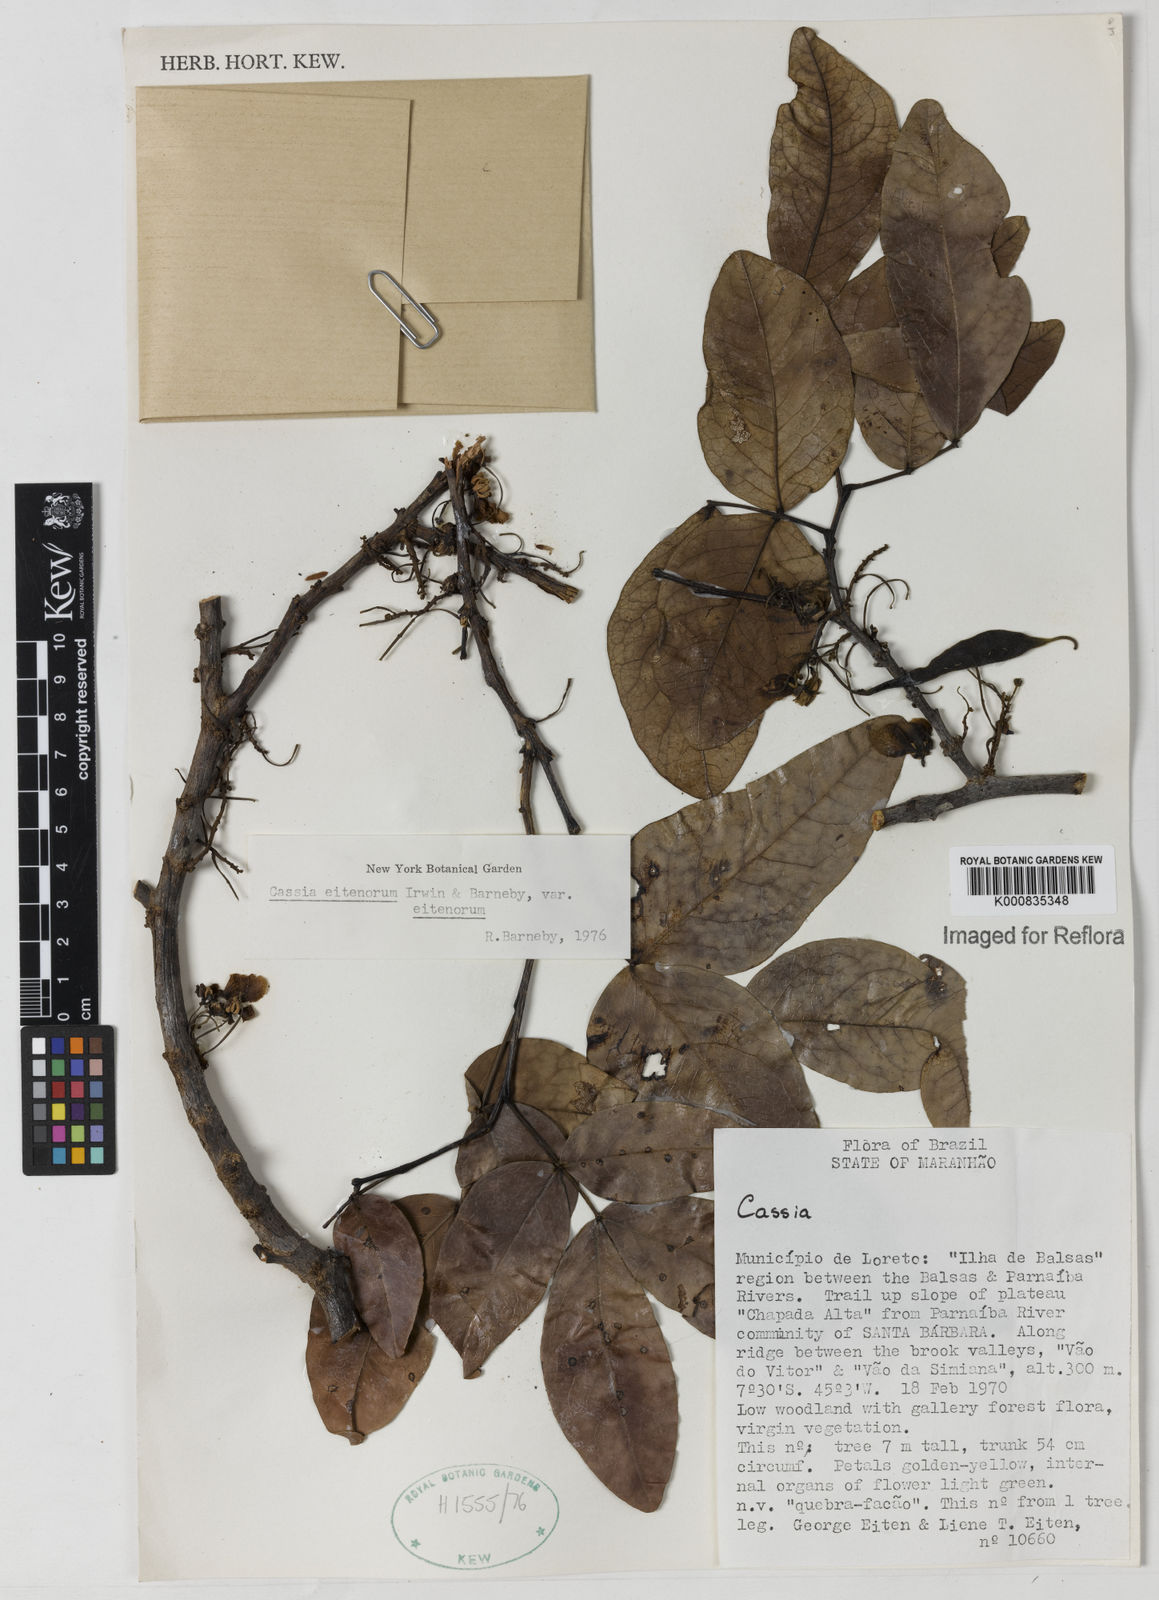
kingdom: Plantae
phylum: Tracheophyta
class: Magnoliopsida
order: Fabales
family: Fabaceae
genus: Chamaecrista
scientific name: Chamaecrista eitenorum
